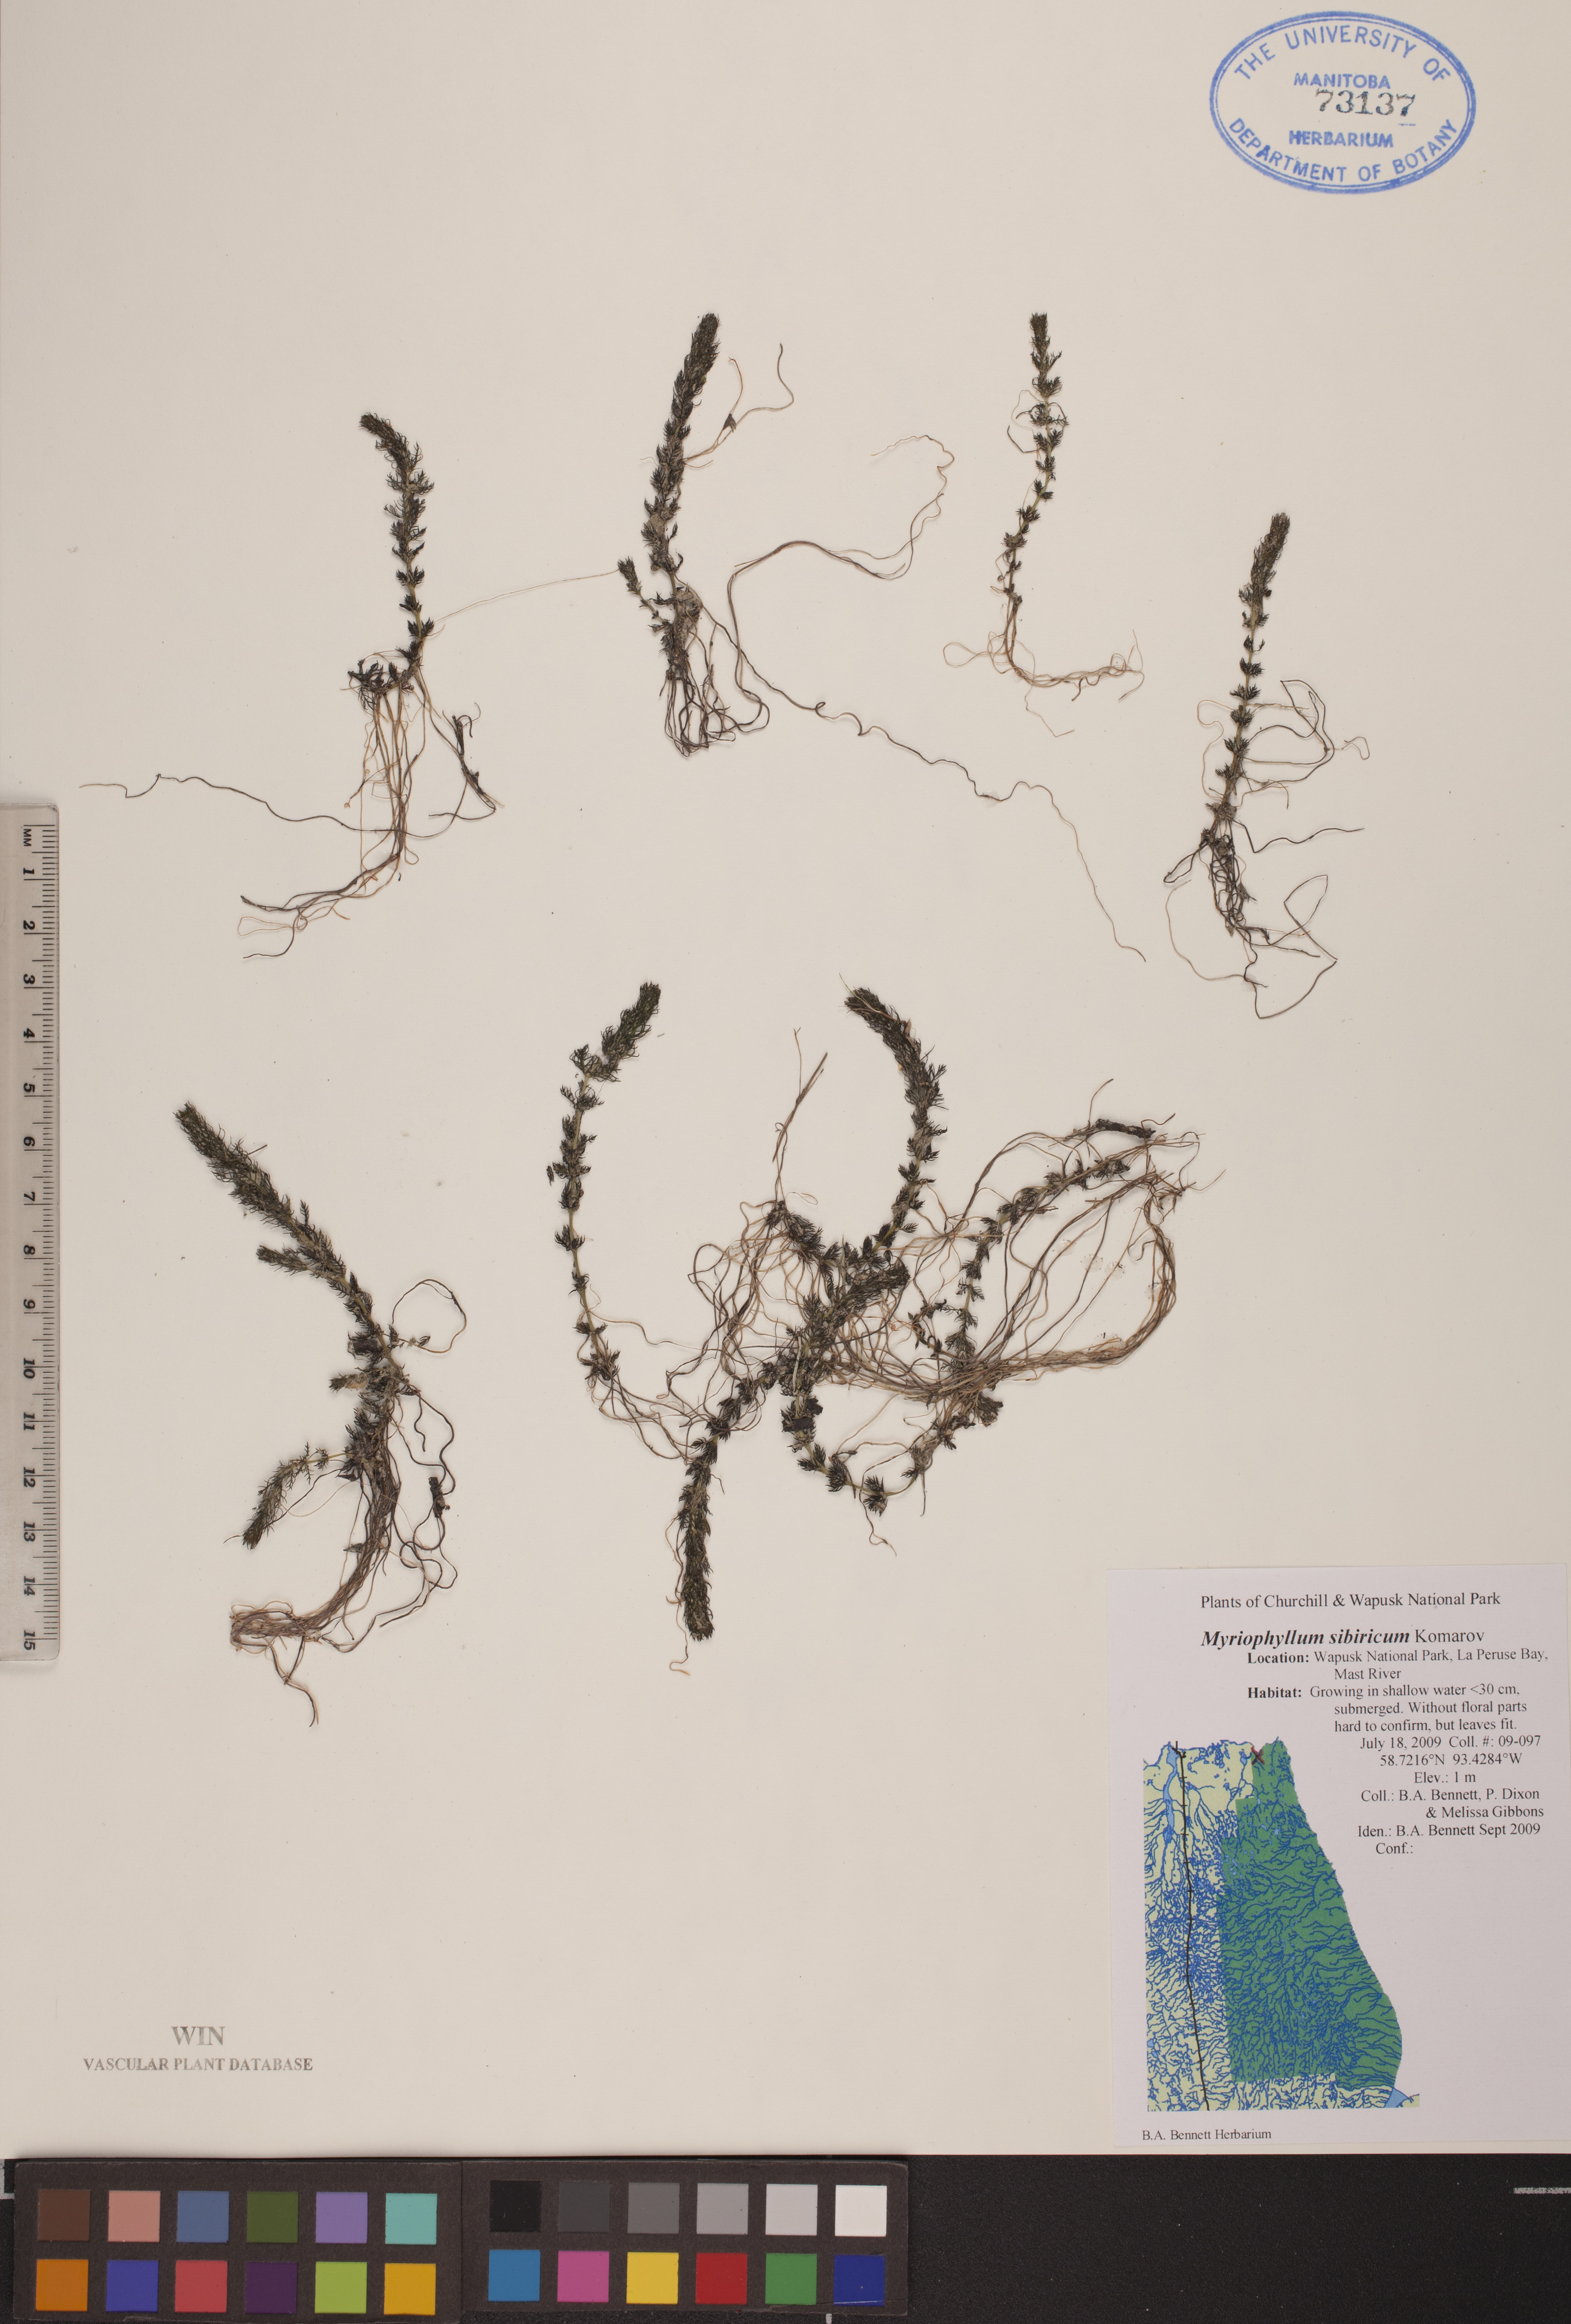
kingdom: Plantae
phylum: Tracheophyta
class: Magnoliopsida
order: Saxifragales
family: Haloragaceae
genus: Myriophyllum
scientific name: Myriophyllum sibiricum
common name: Siberian water-milfoil
